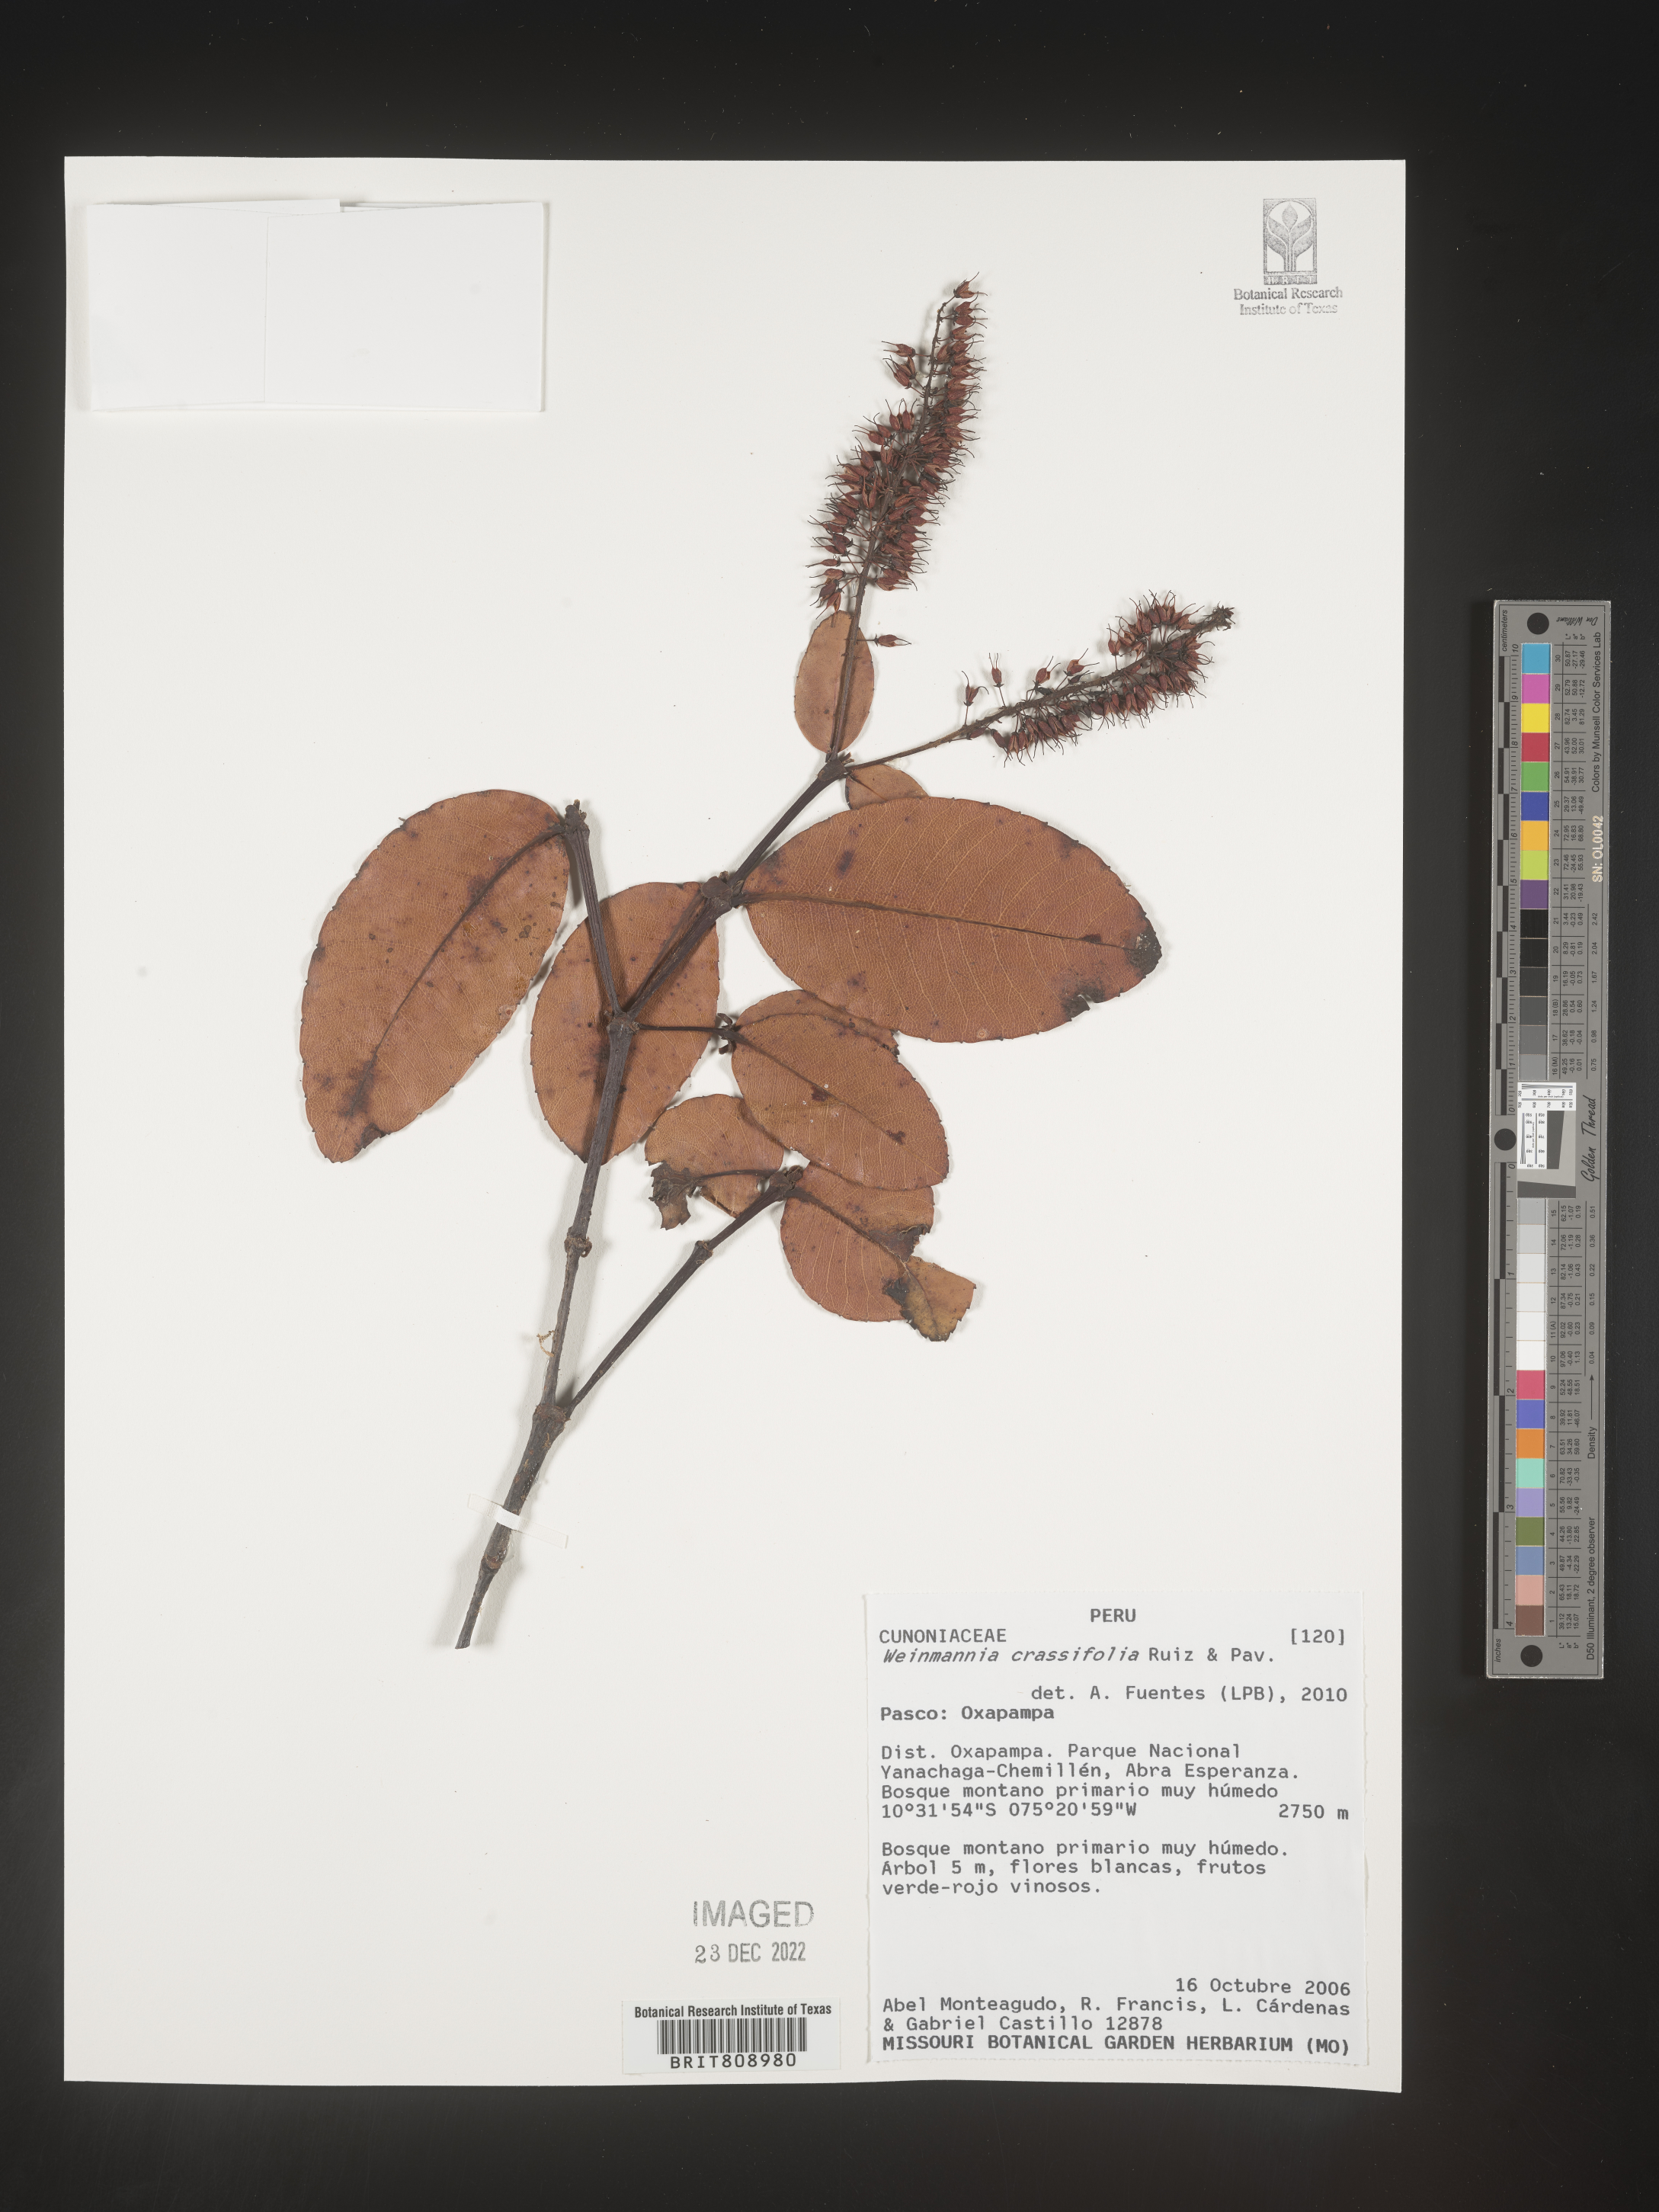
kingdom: Plantae
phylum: Tracheophyta
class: Magnoliopsida
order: Oxalidales
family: Cunoniaceae
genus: Weinmannia
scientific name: Weinmannia
